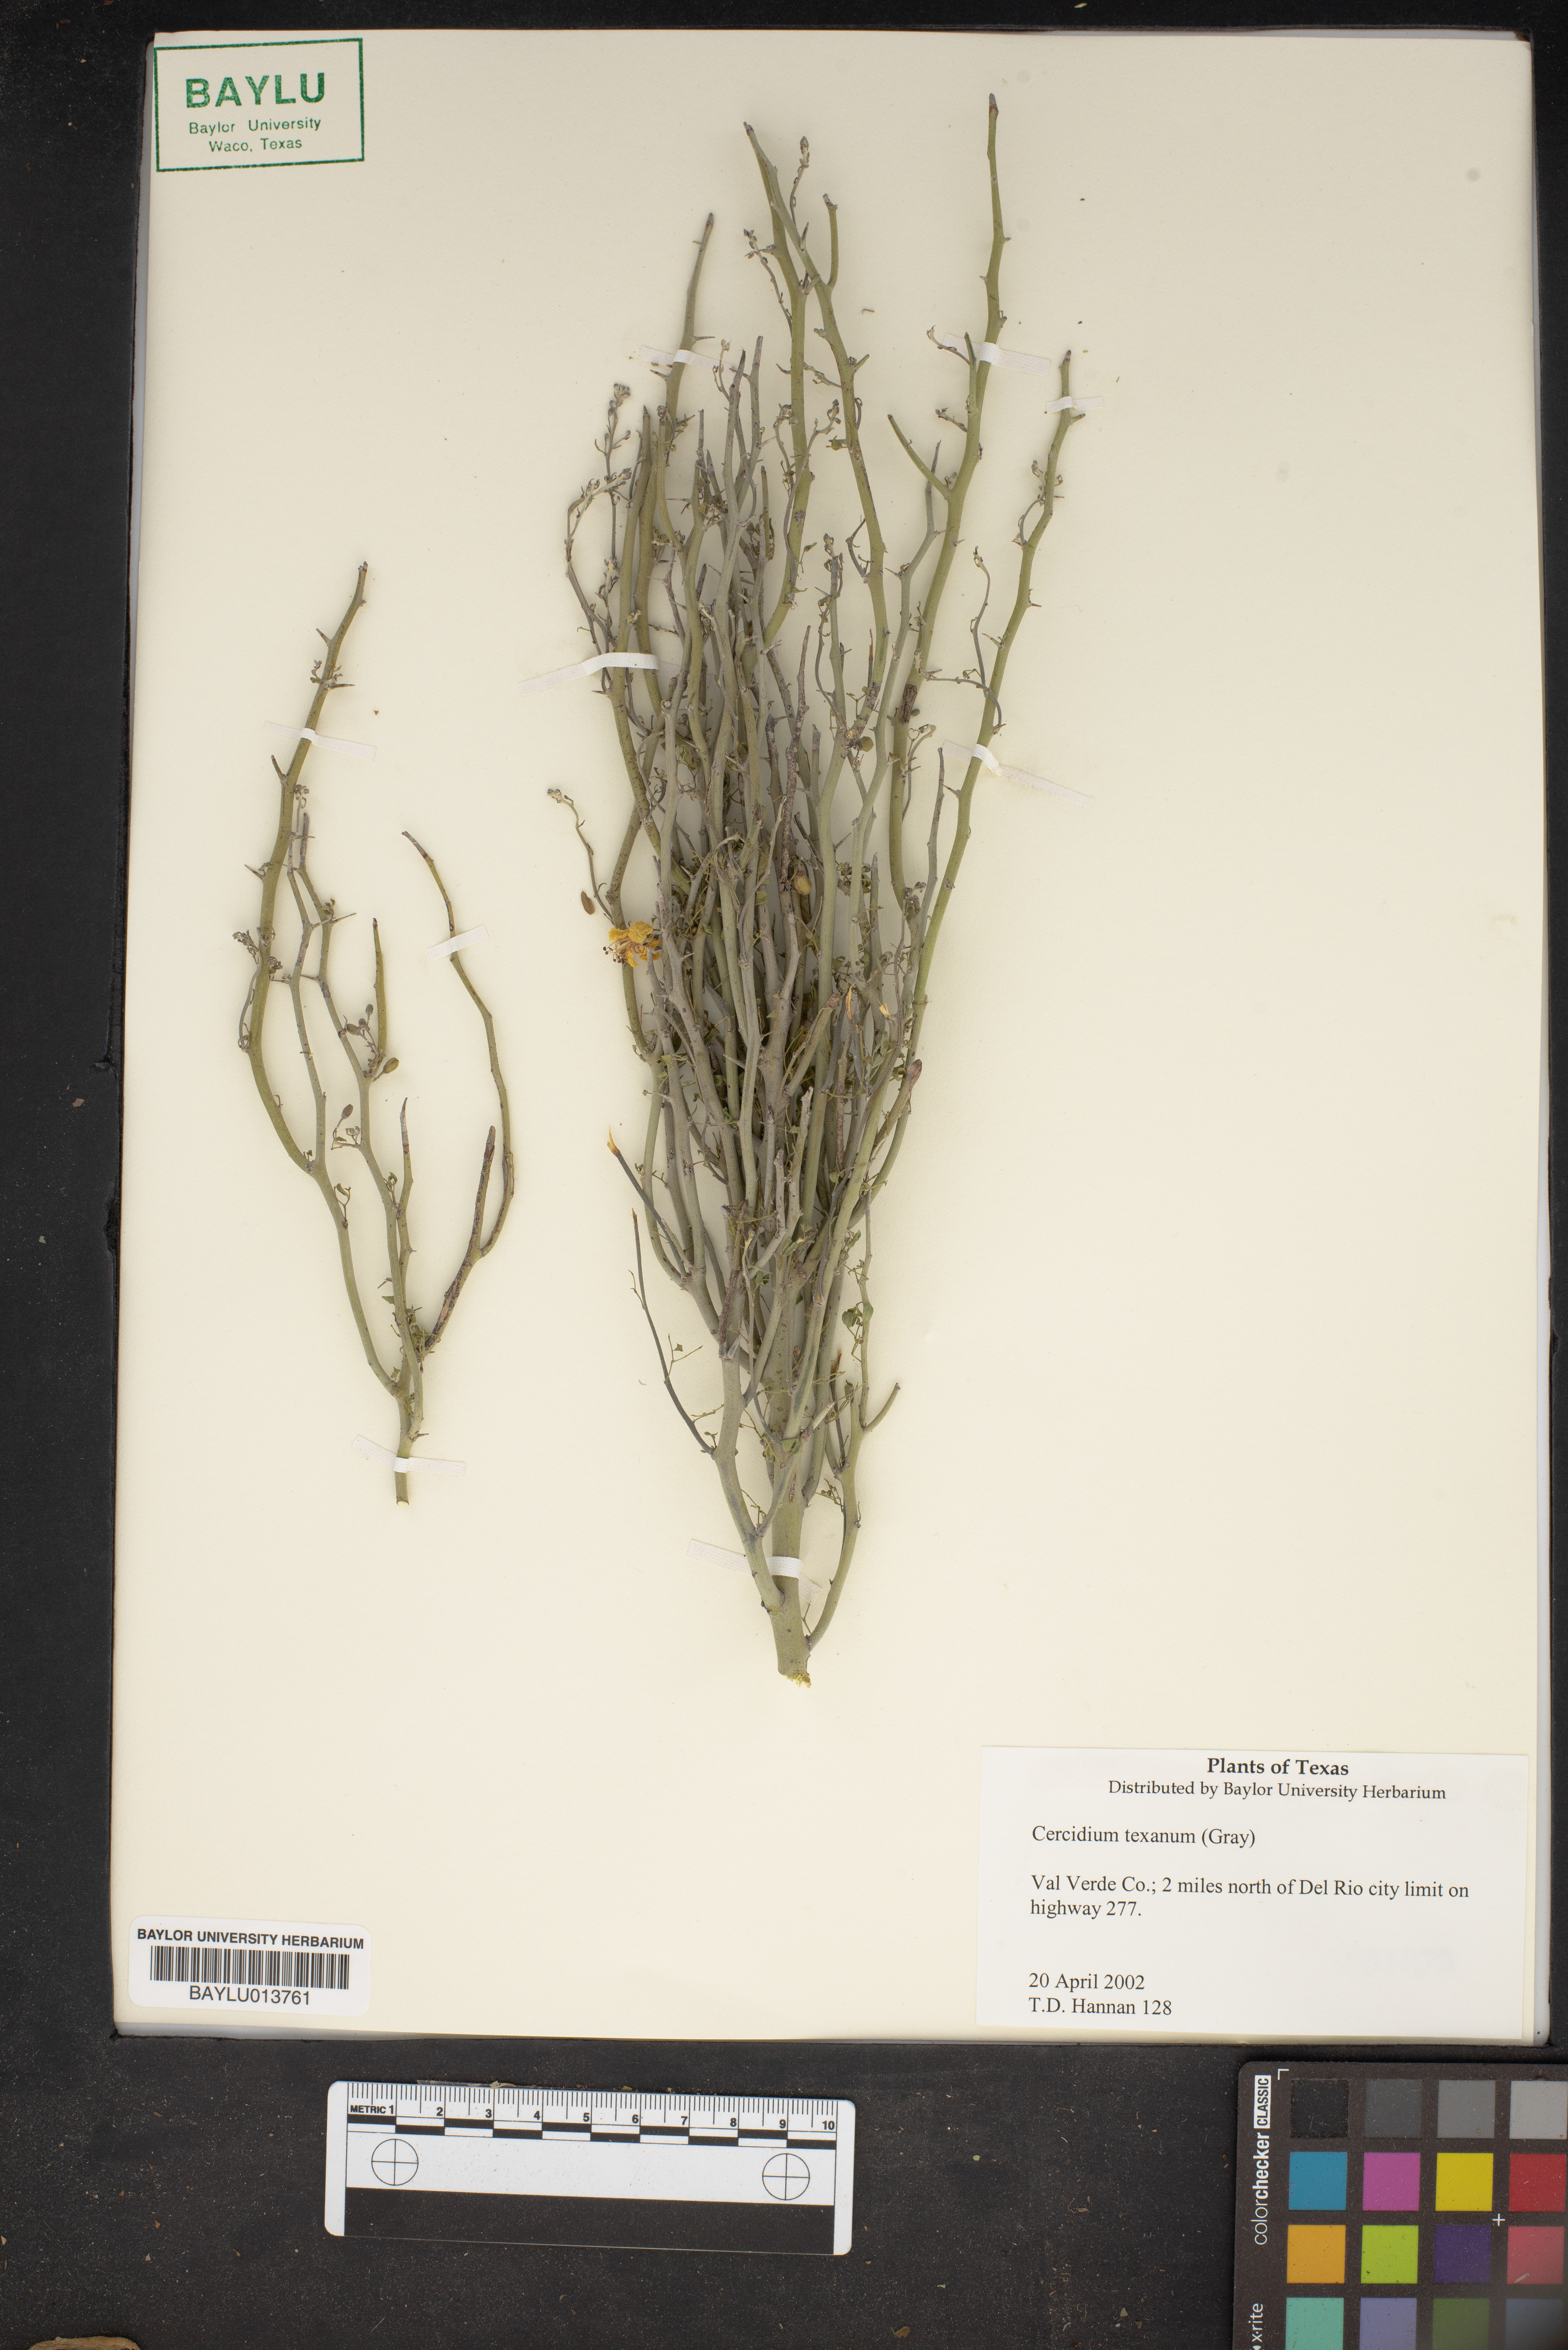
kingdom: Plantae
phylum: Tracheophyta
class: Magnoliopsida
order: Fabales
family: Fabaceae
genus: Parkinsonia
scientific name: Parkinsonia texana
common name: Texas paloverde
